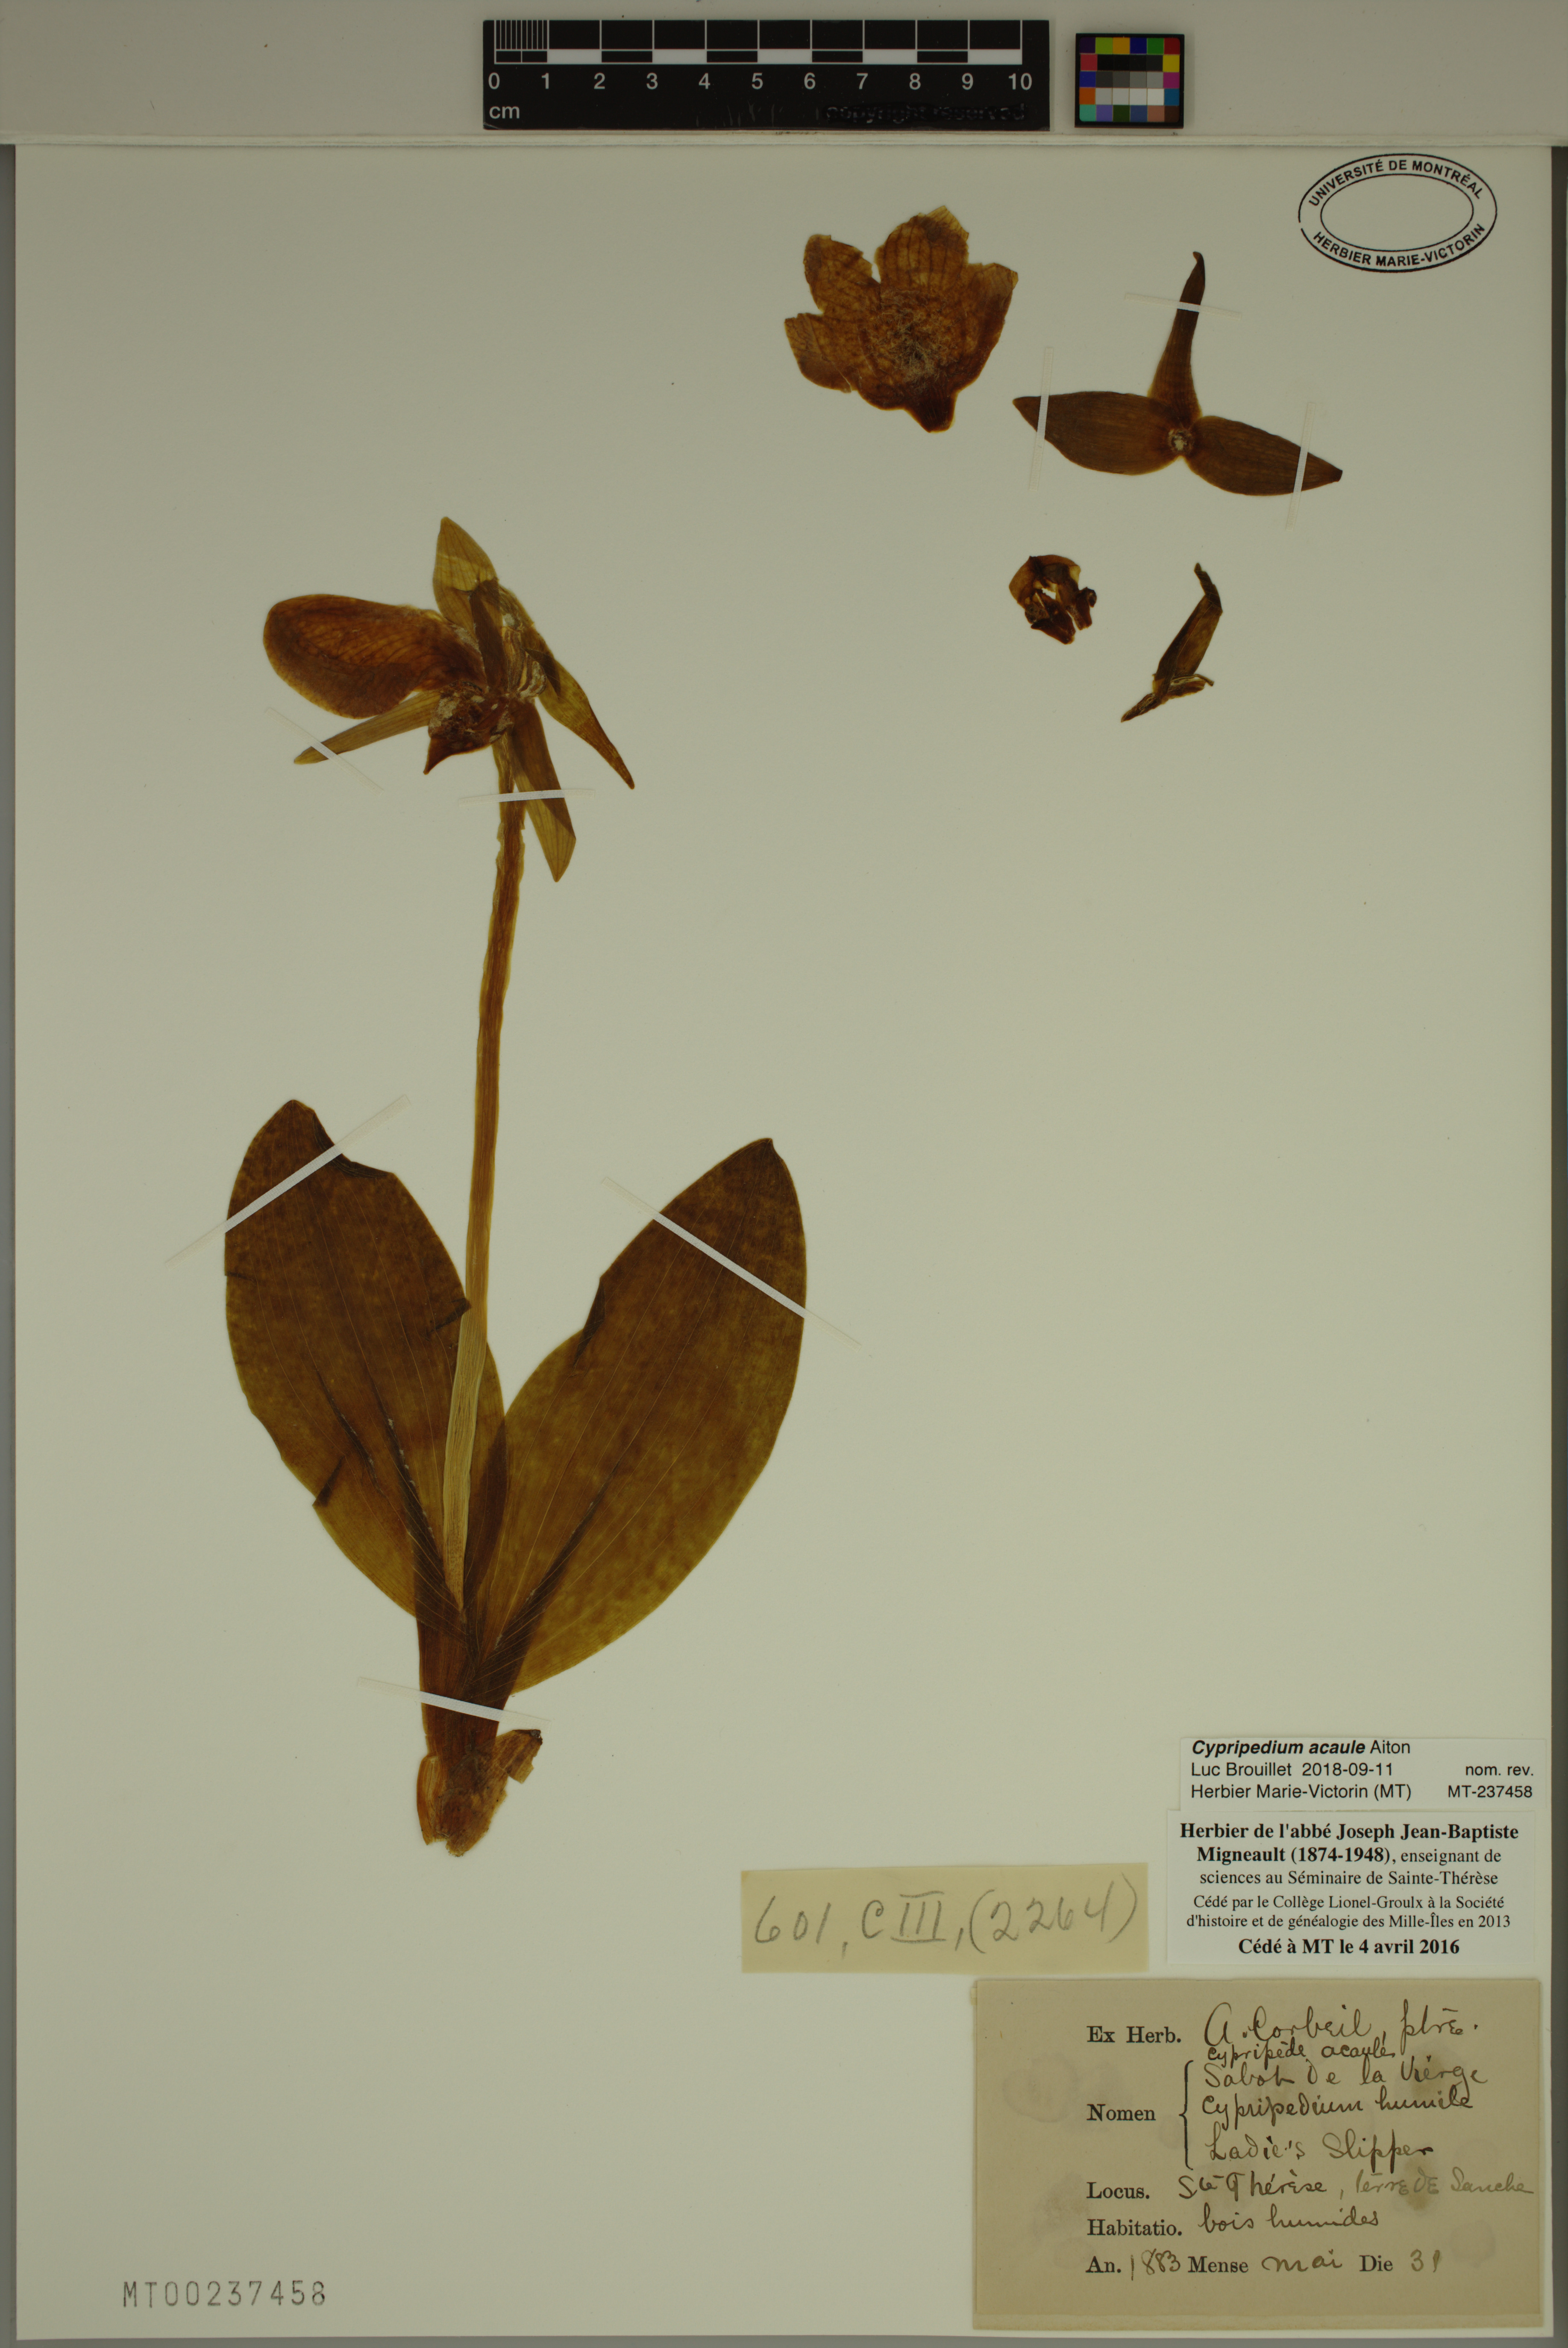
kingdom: Plantae
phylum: Tracheophyta
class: Liliopsida
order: Asparagales
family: Orchidaceae
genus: Cypripedium
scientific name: Cypripedium acaule
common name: Pink lady's-slipper
